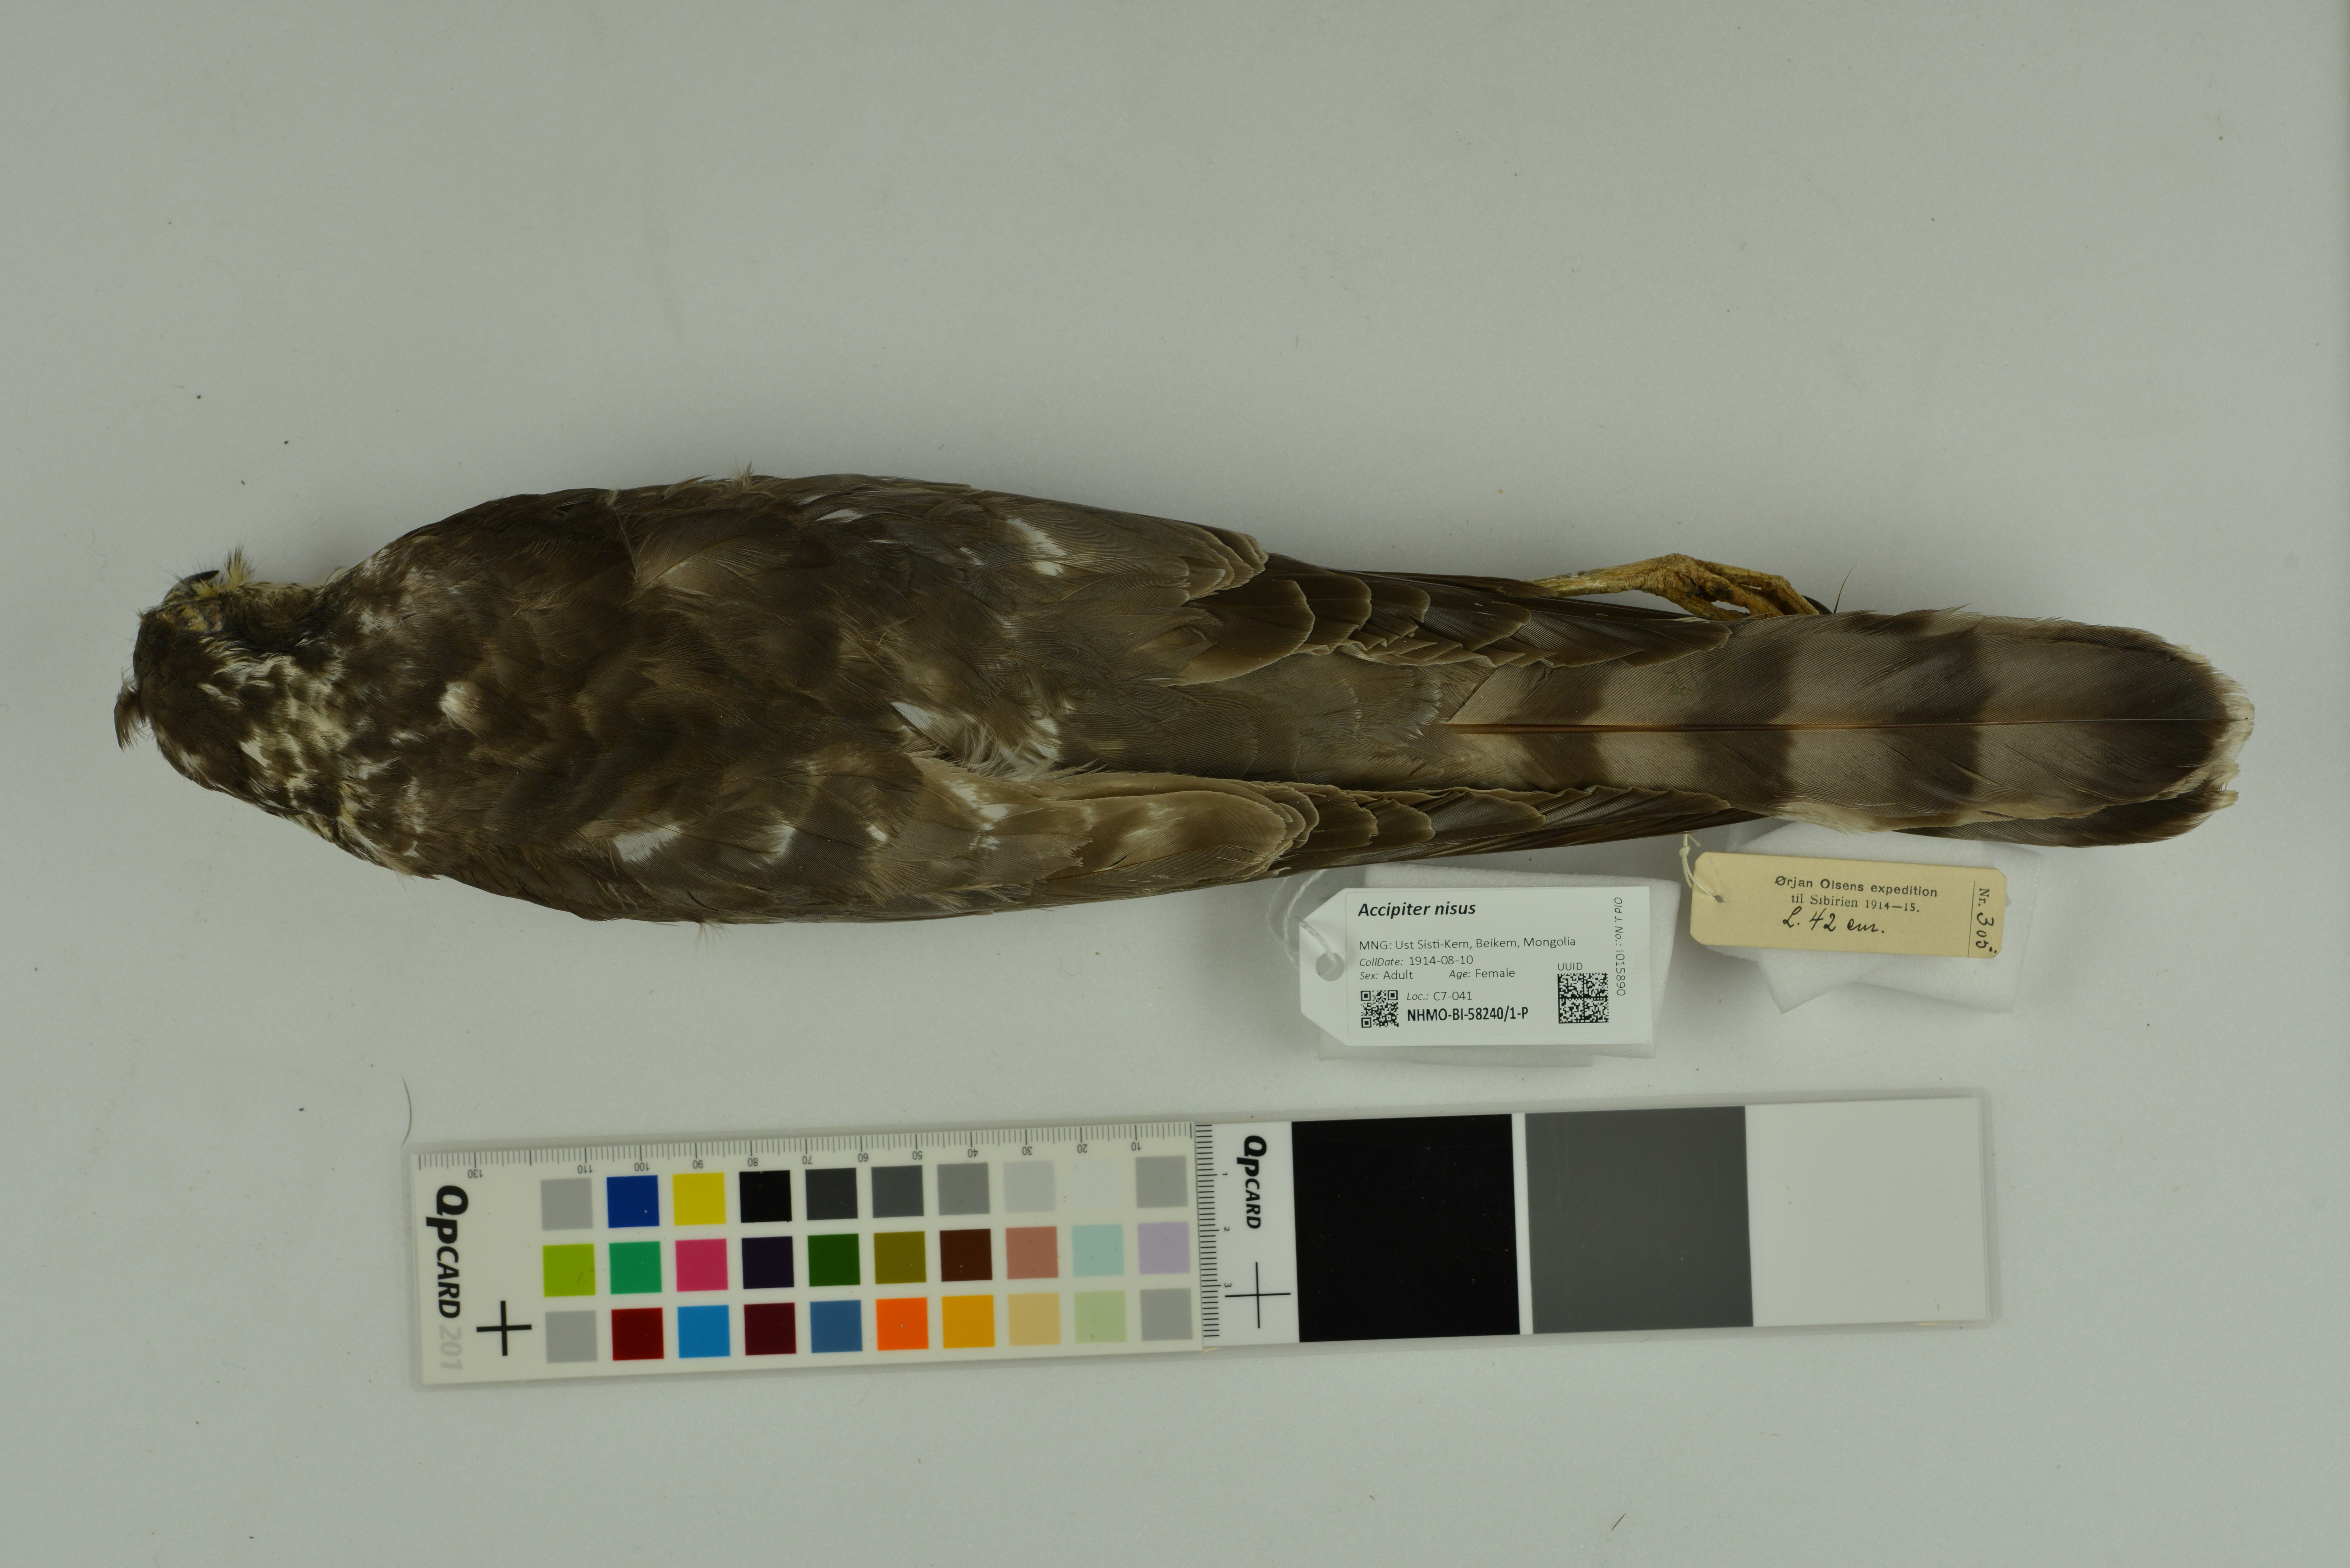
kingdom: Animalia
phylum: Chordata
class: Aves
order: Accipitriformes
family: Accipitridae
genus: Accipiter
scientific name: Accipiter nisus
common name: Eurasian sparrowhawk
